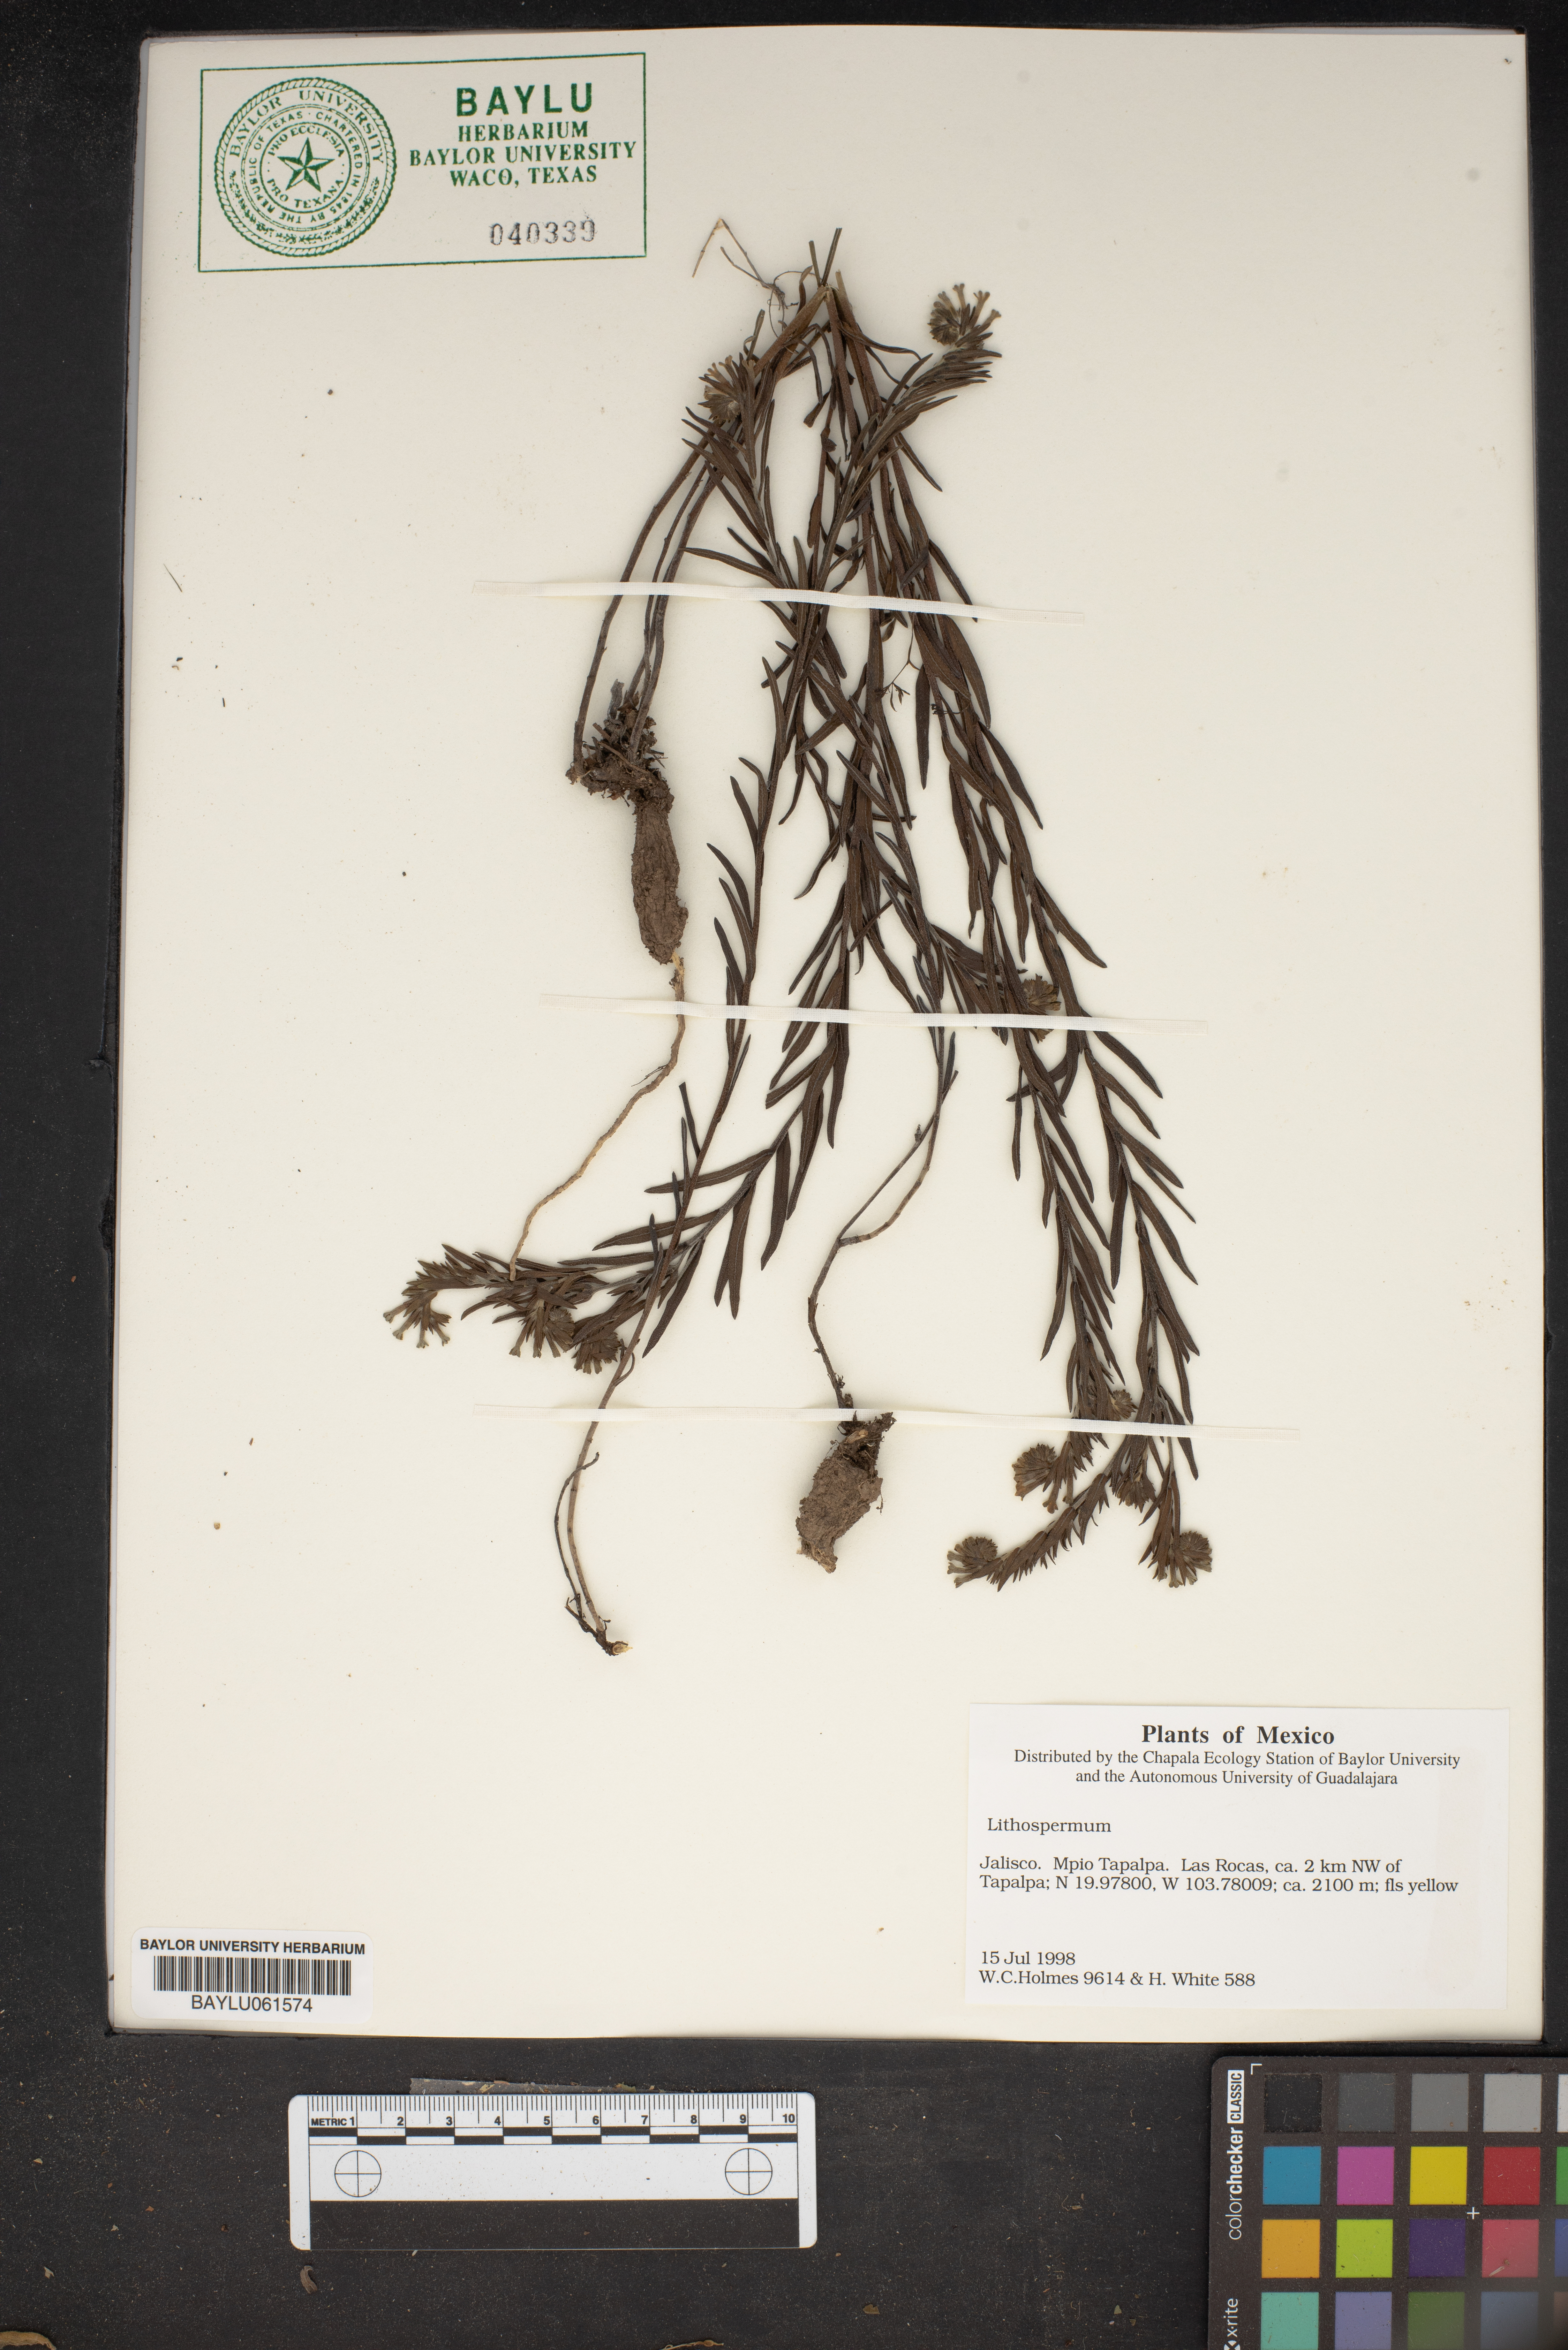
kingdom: Plantae
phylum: Tracheophyta
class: Magnoliopsida
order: Boraginales
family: Boraginaceae
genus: Lithospermum
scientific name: Lithospermum
